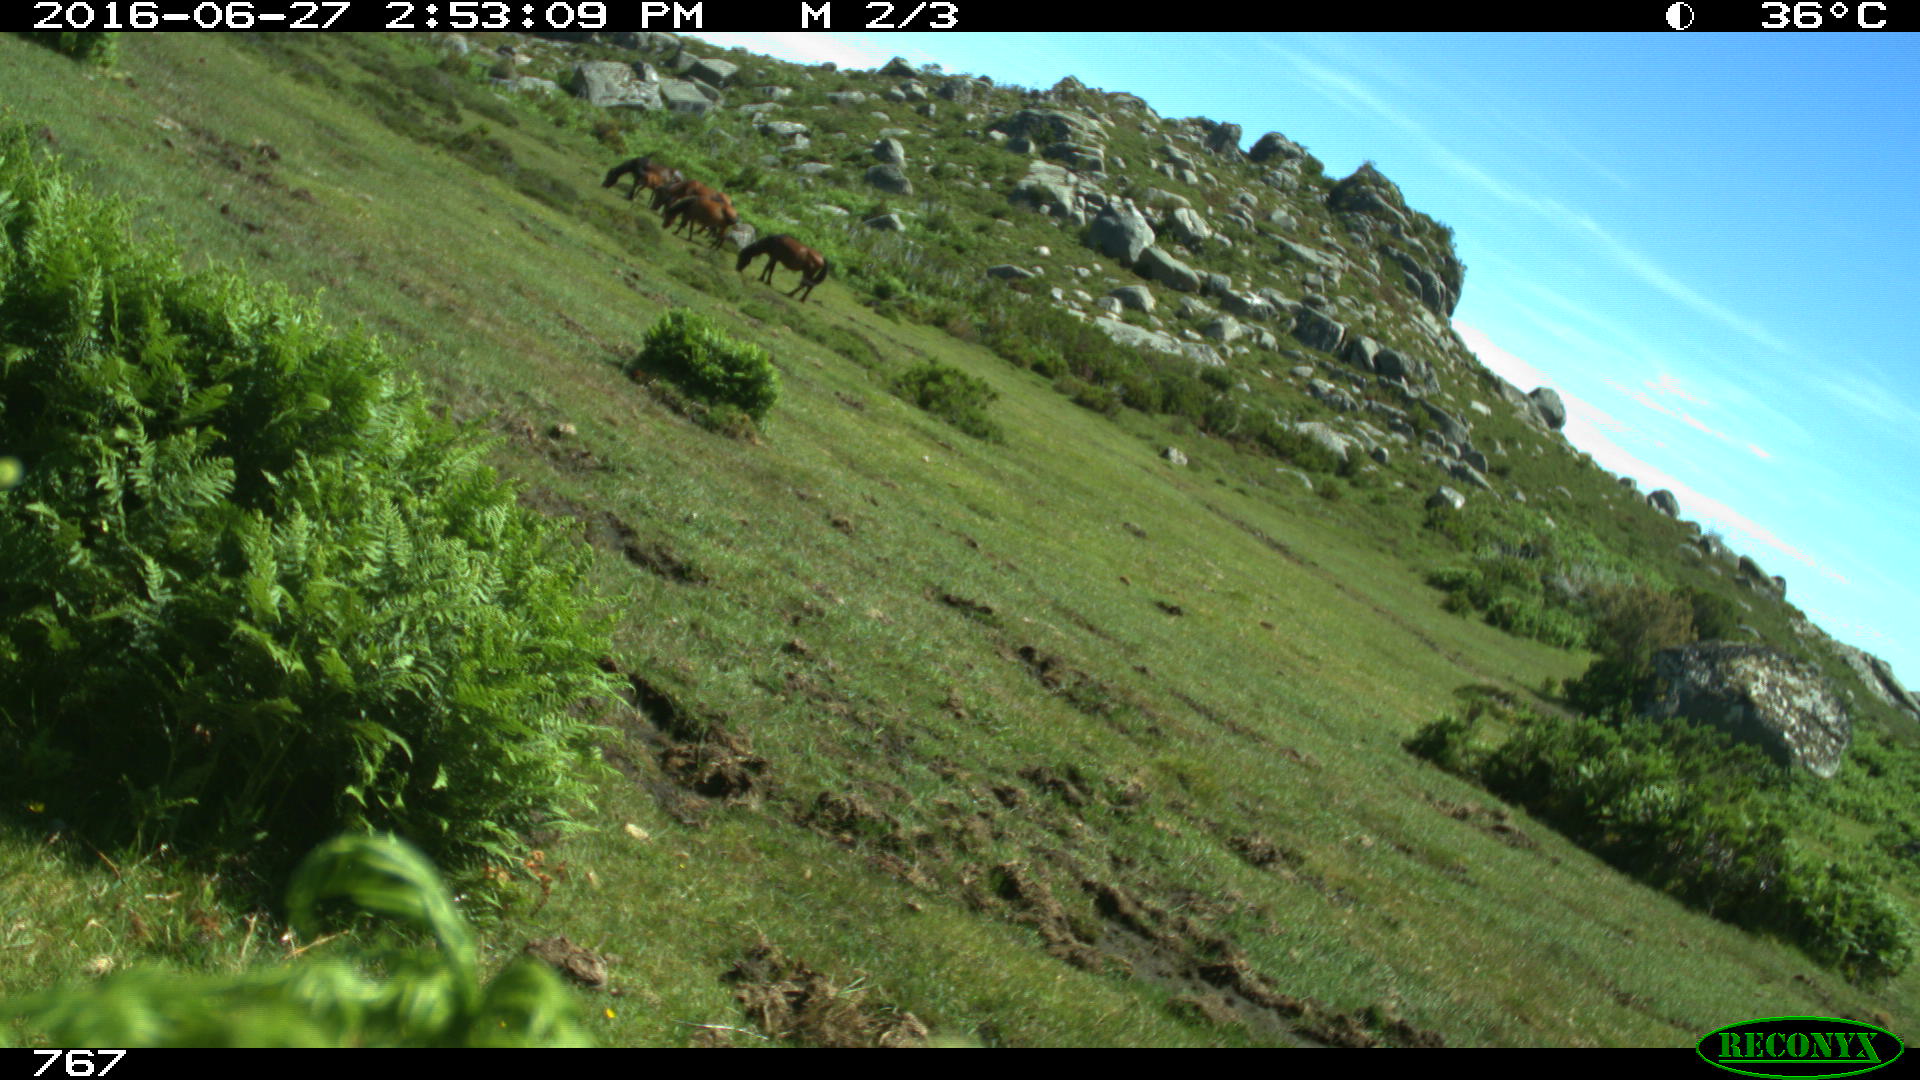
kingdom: Animalia
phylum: Chordata
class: Mammalia
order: Perissodactyla
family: Equidae
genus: Equus
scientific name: Equus caballus
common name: Horse
